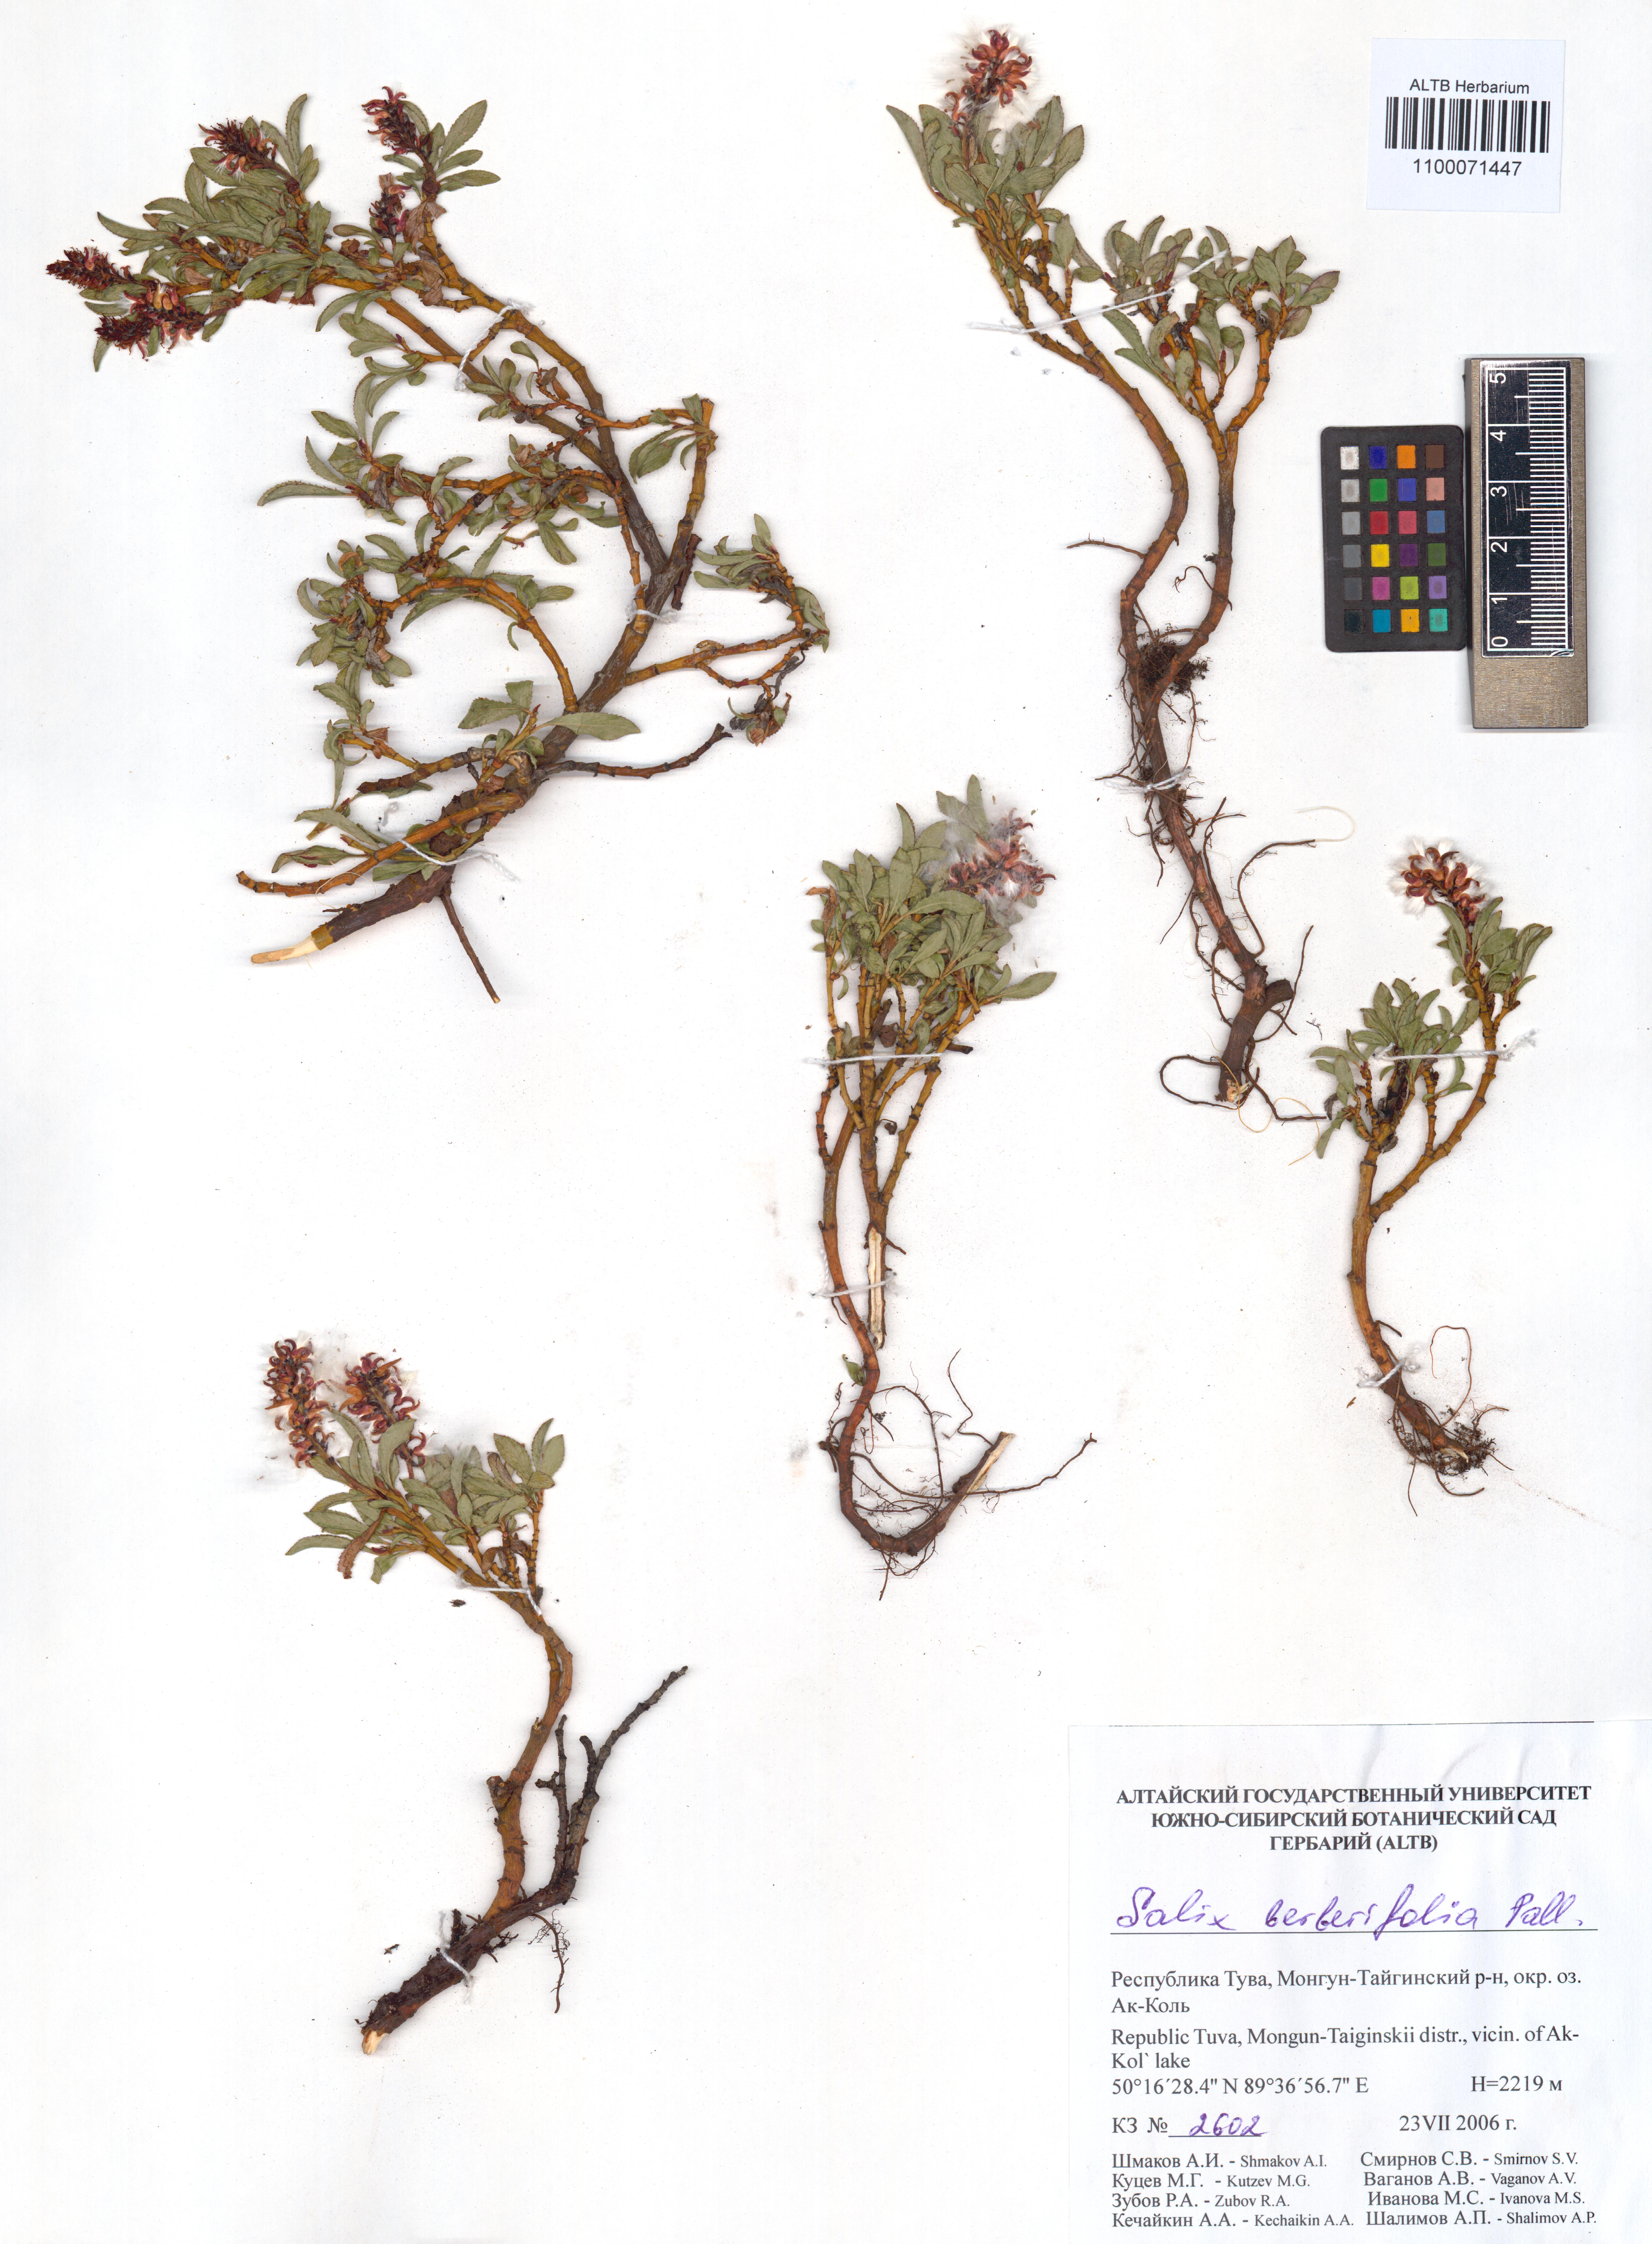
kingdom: Plantae
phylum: Tracheophyta
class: Magnoliopsida
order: Malpighiales
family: Salicaceae
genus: Salix
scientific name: Salix berberifolia
